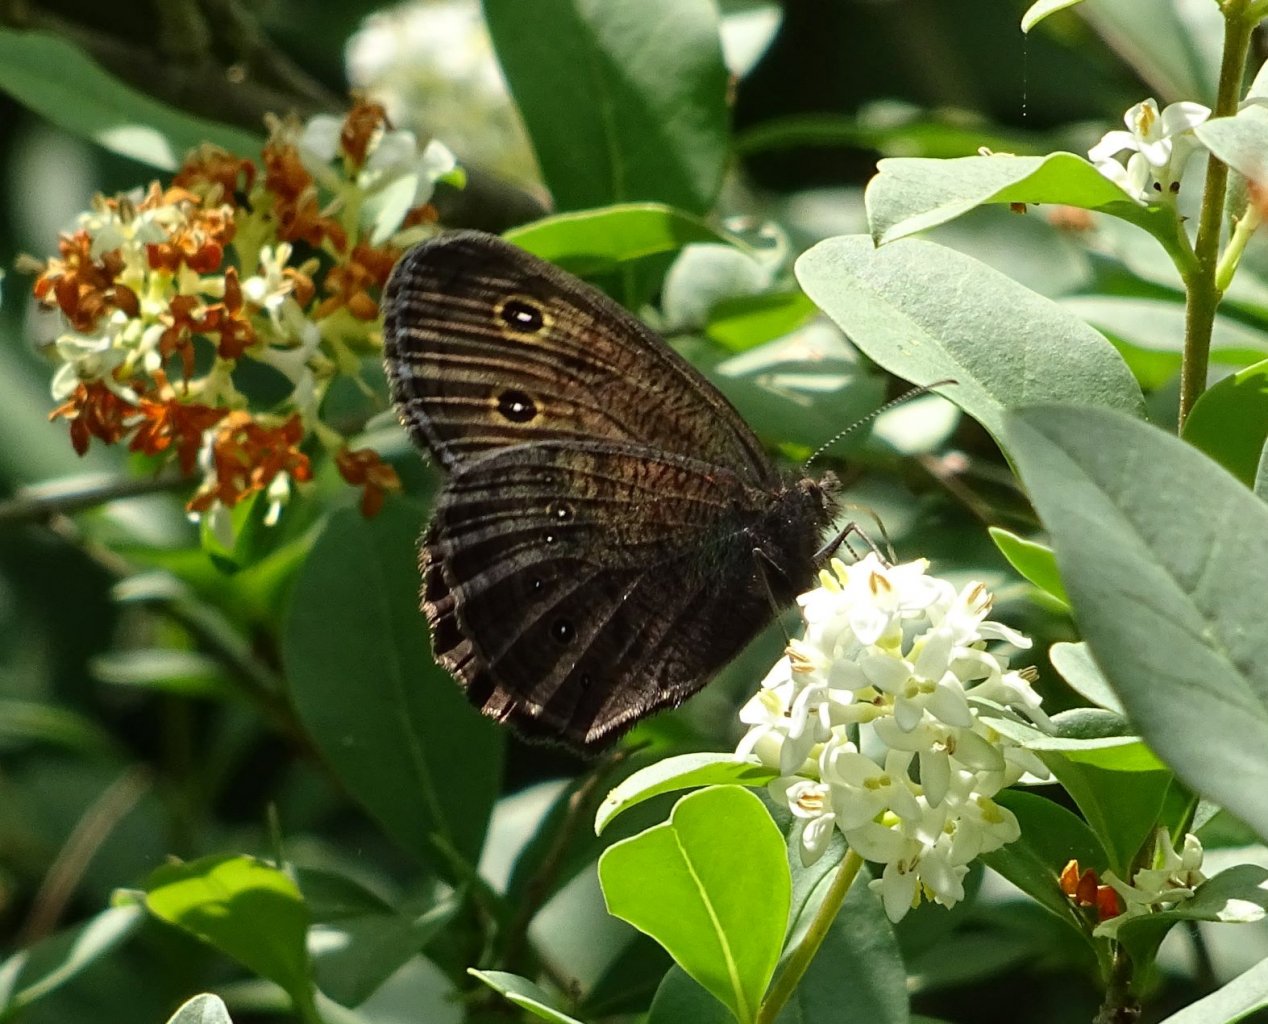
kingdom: Animalia
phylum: Arthropoda
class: Insecta
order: Lepidoptera
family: Nymphalidae
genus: Cercyonis
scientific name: Cercyonis pegala
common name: Common Wood-Nymph
